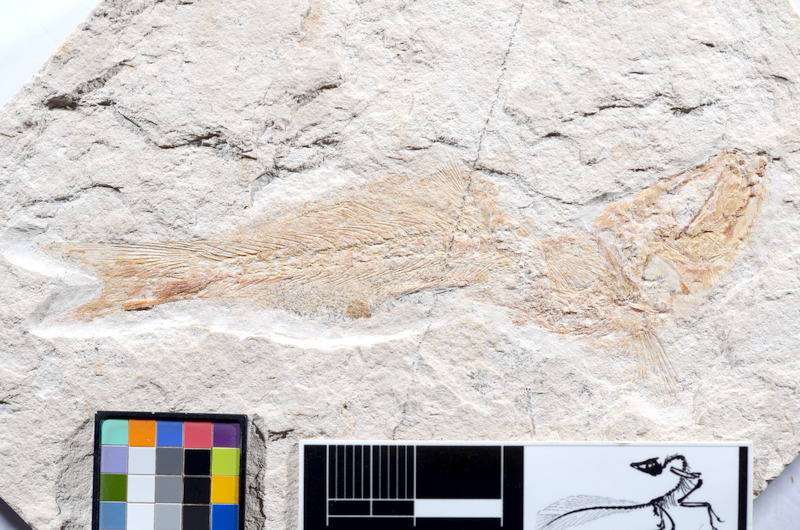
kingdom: Animalia
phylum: Chordata
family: Ascalaboidae
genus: Tharsis
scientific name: Tharsis dubius
